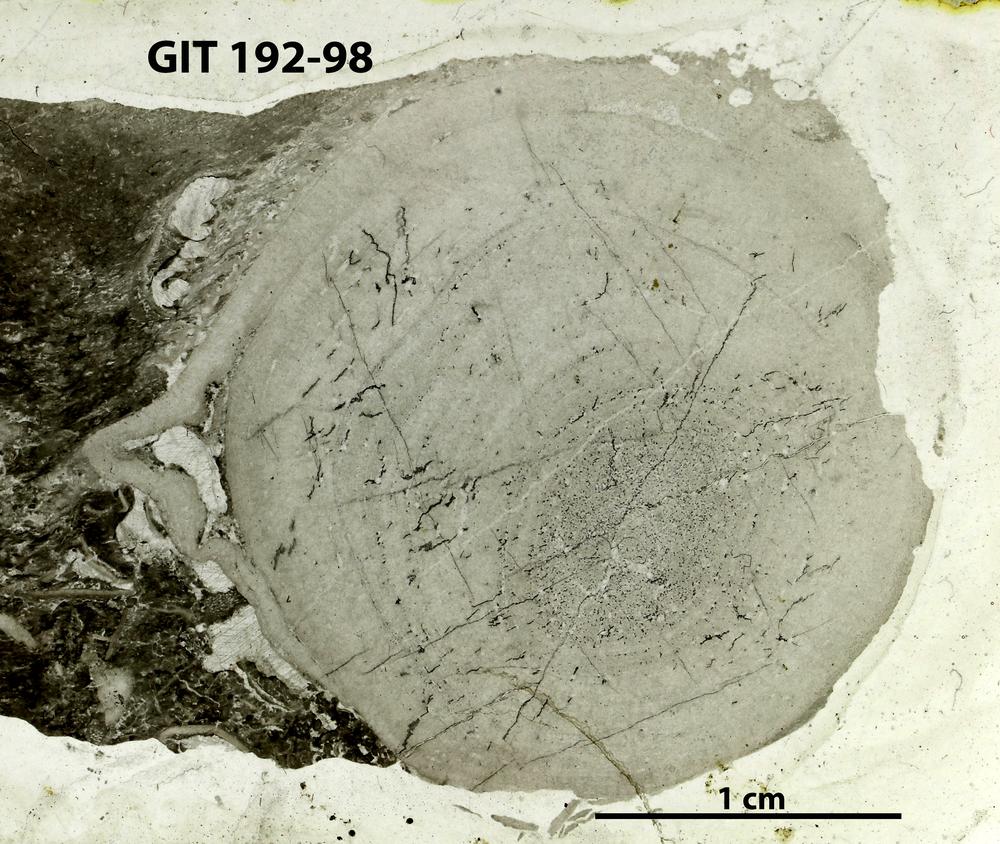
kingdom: Animalia
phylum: Porifera
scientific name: Porifera
